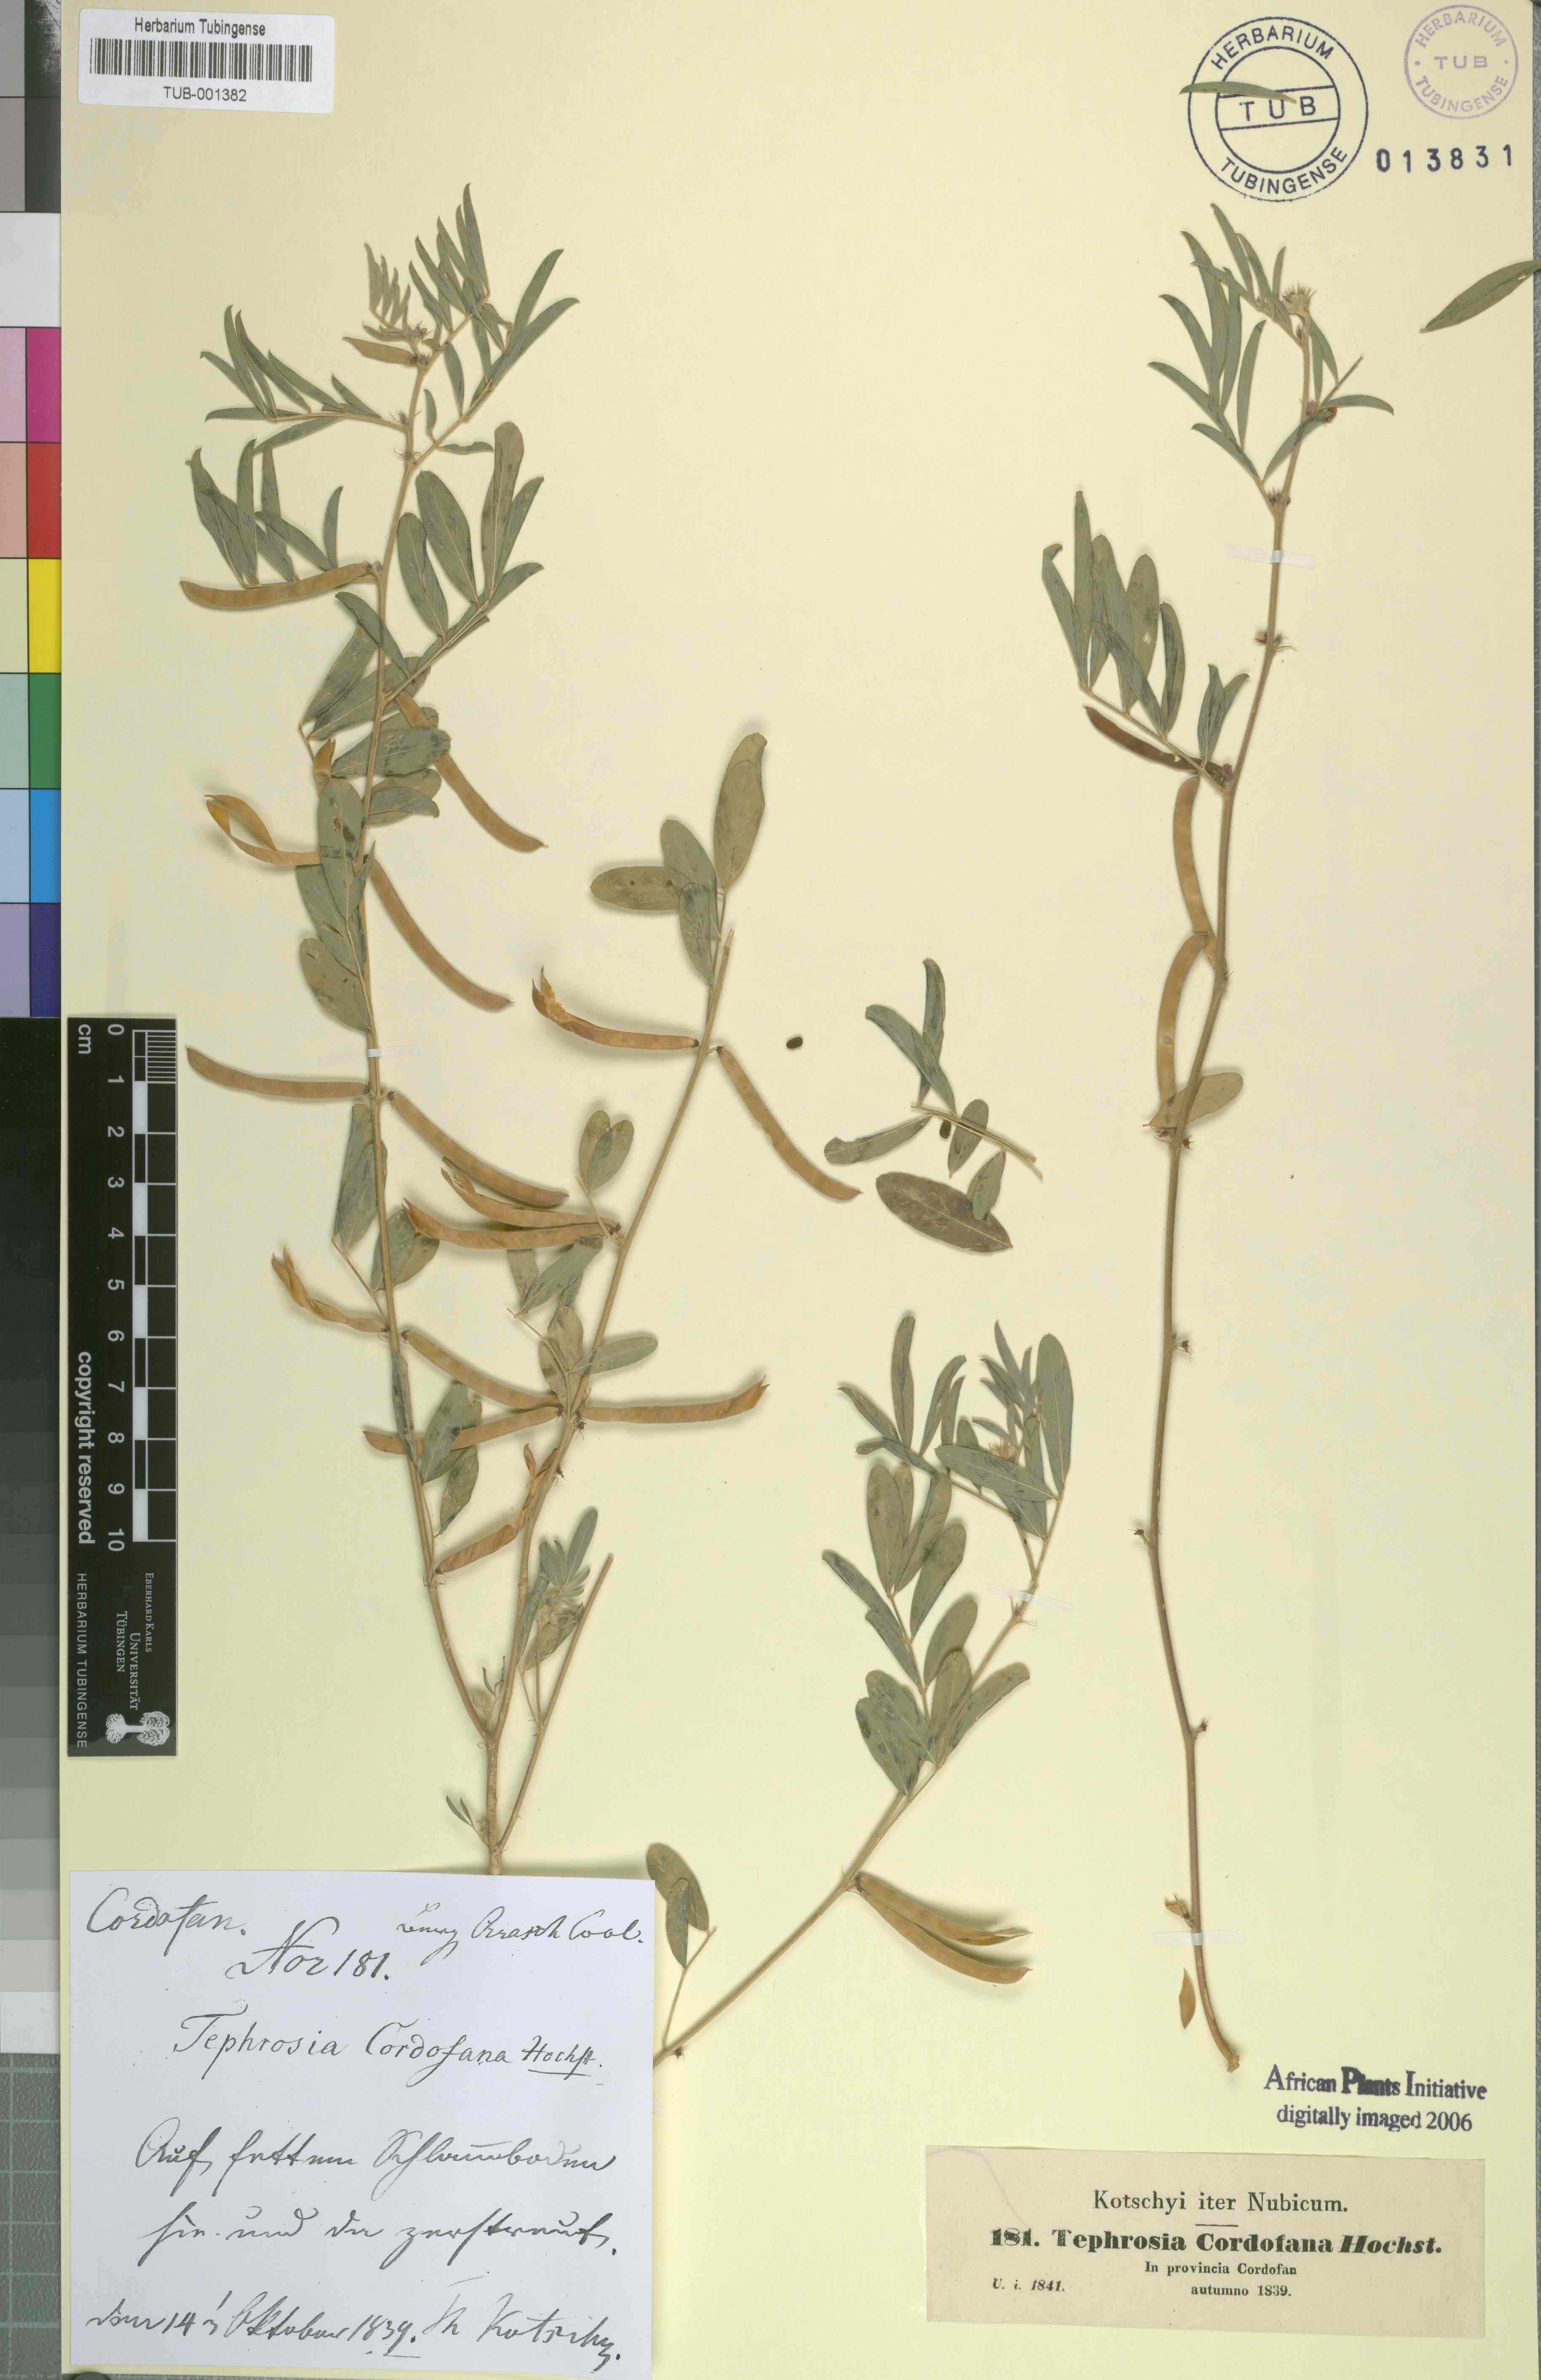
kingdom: Plantae
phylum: Tracheophyta
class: Magnoliopsida
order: Fabales
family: Fabaceae
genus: Tephrosia
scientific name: Tephrosia uniflora
